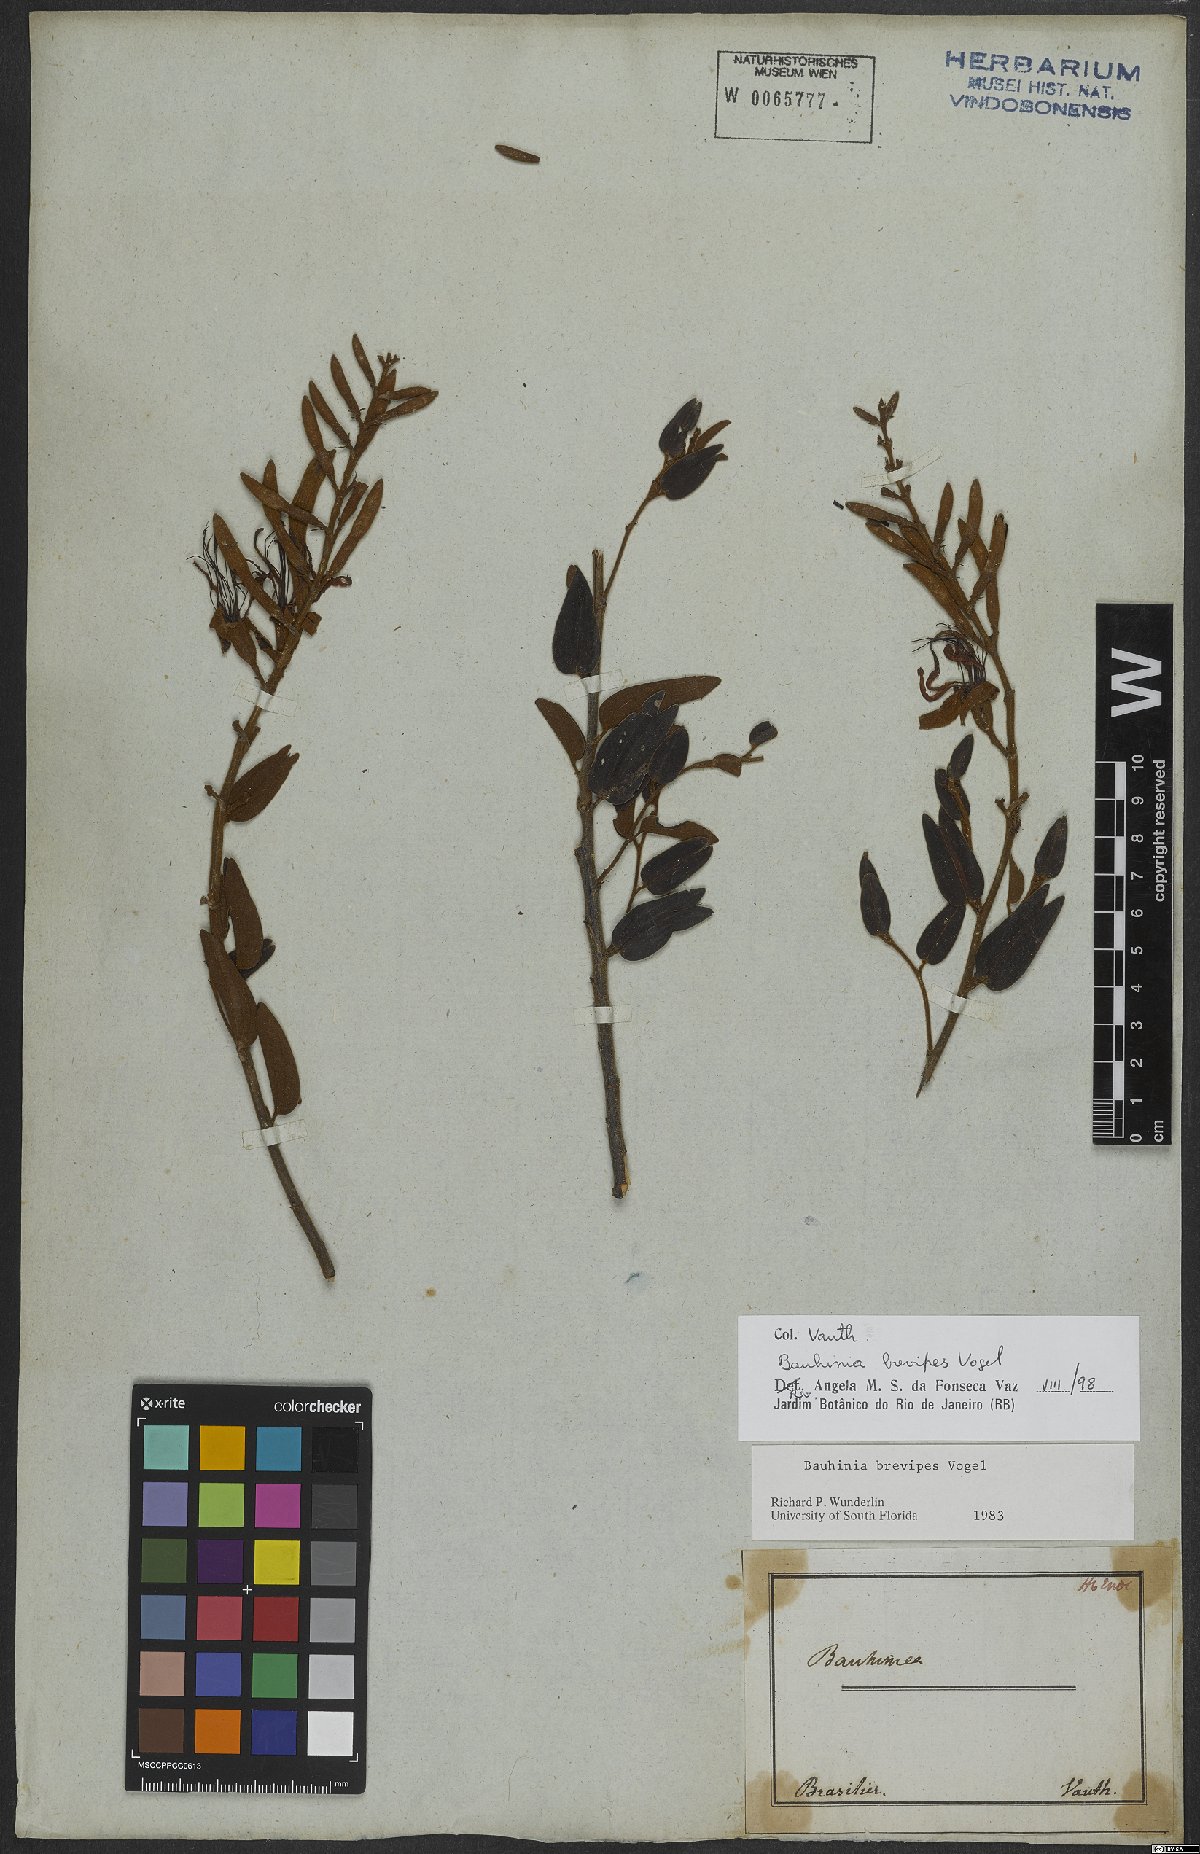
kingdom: Plantae
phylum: Tracheophyta
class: Magnoliopsida
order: Fabales
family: Fabaceae
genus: Bauhinia
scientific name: Bauhinia brevipes
